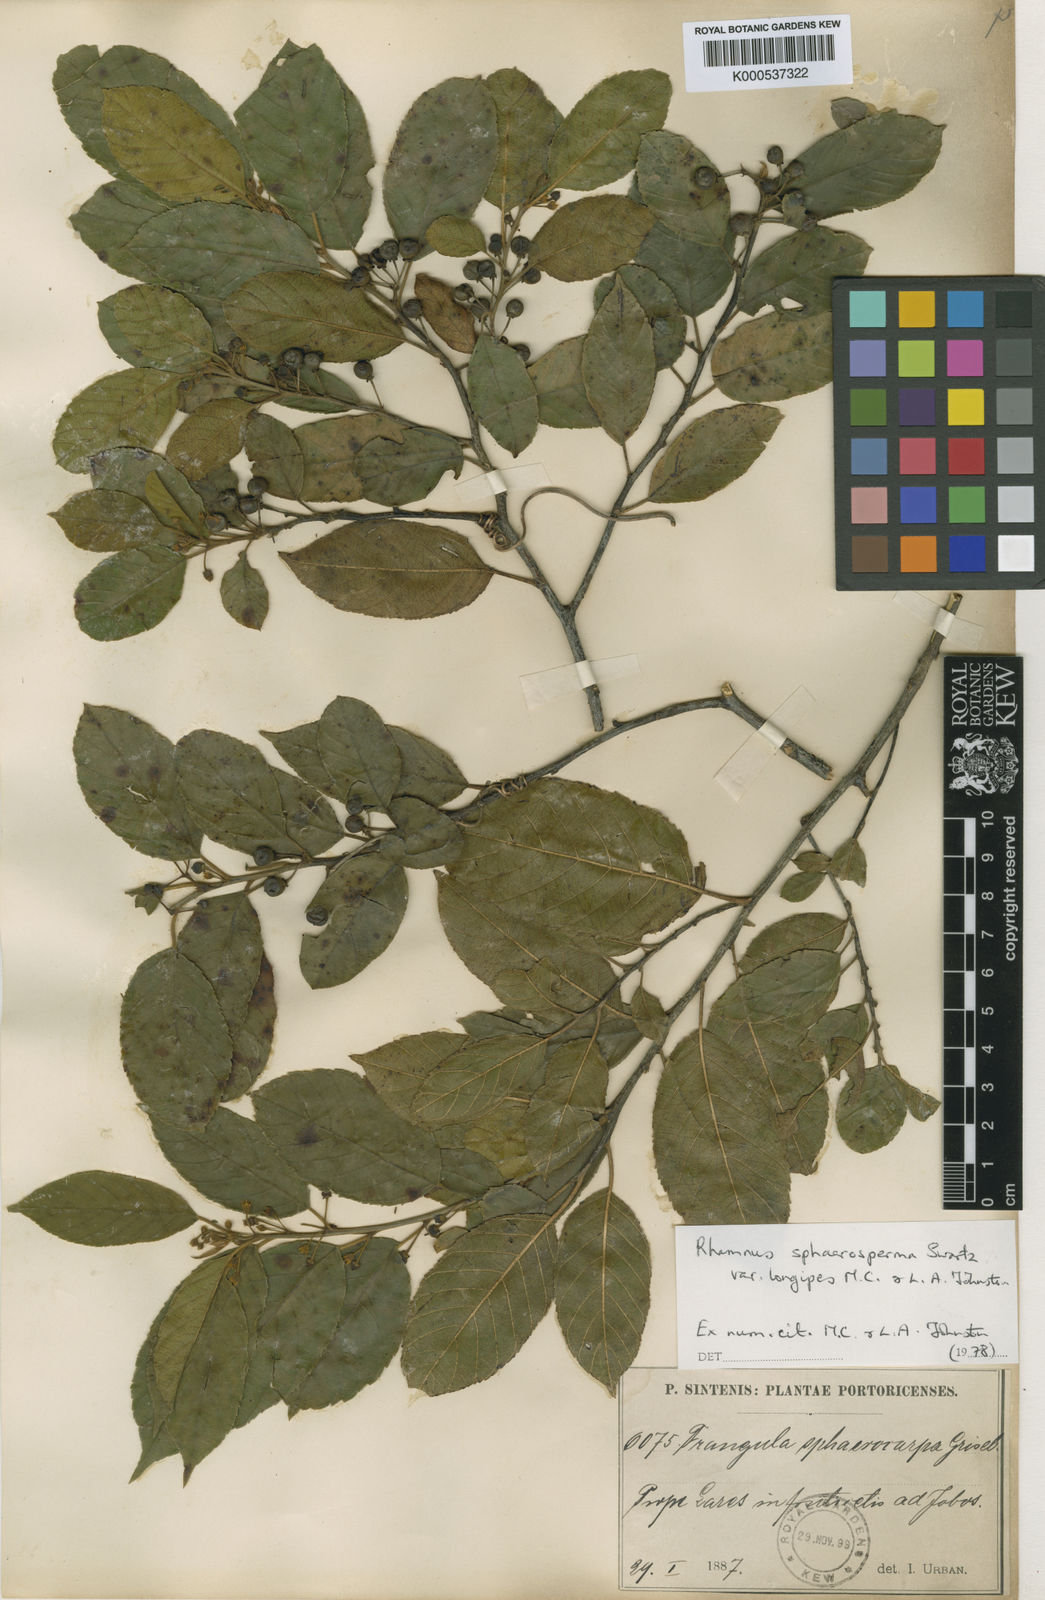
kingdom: Plantae
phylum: Tracheophyta
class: Magnoliopsida
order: Rosales
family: Rhamnaceae
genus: Frangula
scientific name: Frangula longipedicellata
